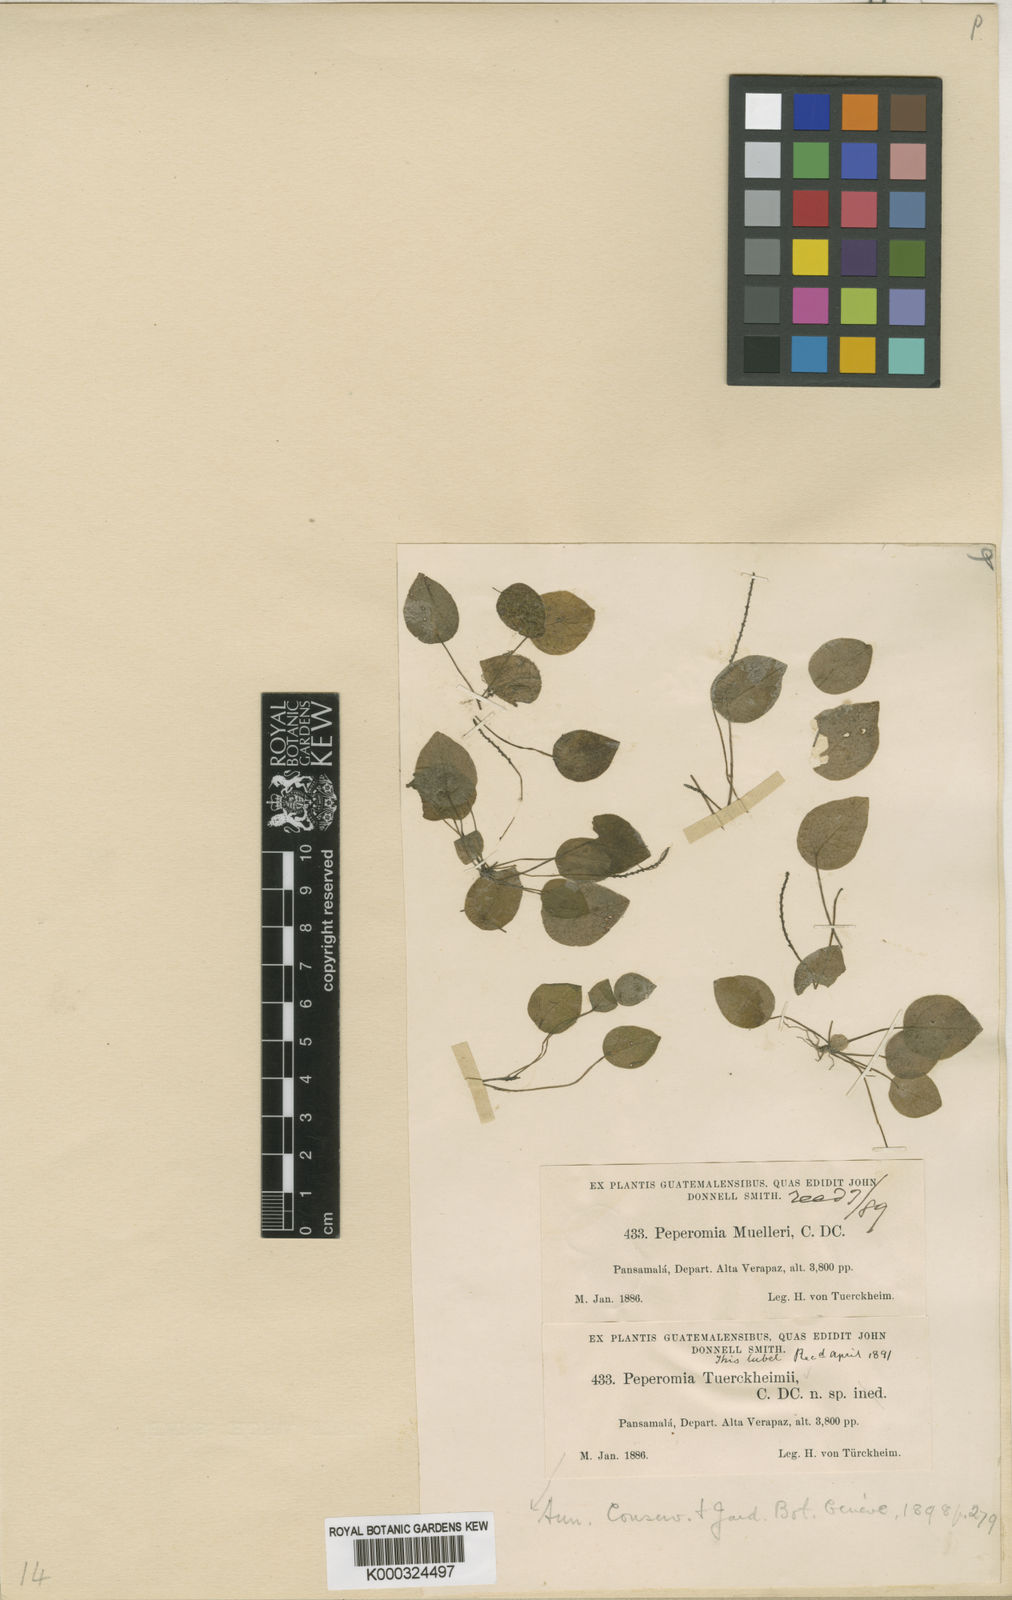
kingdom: Plantae
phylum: Tracheophyta
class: Magnoliopsida
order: Piperales
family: Piperaceae
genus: Peperomia
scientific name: Peperomia tuerckheimii
